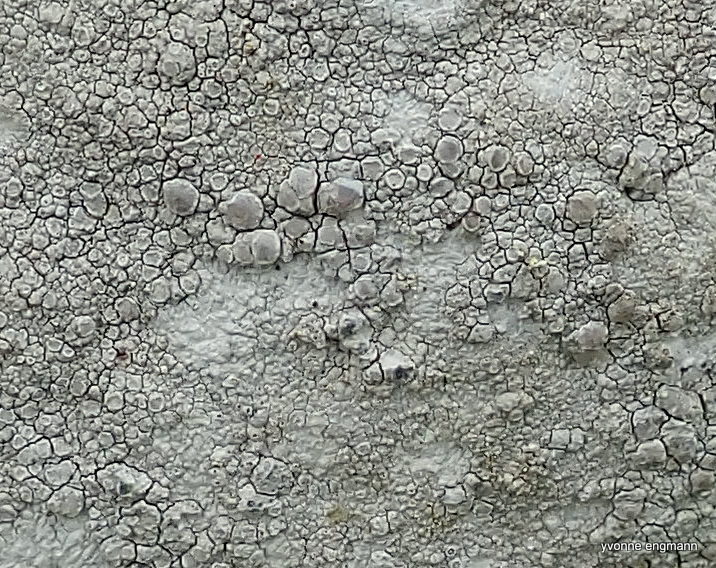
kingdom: Fungi
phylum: Ascomycota
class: Lecanoromycetes
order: Lecanorales
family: Lecanoraceae
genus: Glaucomaria
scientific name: Glaucomaria rupicola
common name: stengærde-kantskivelav
